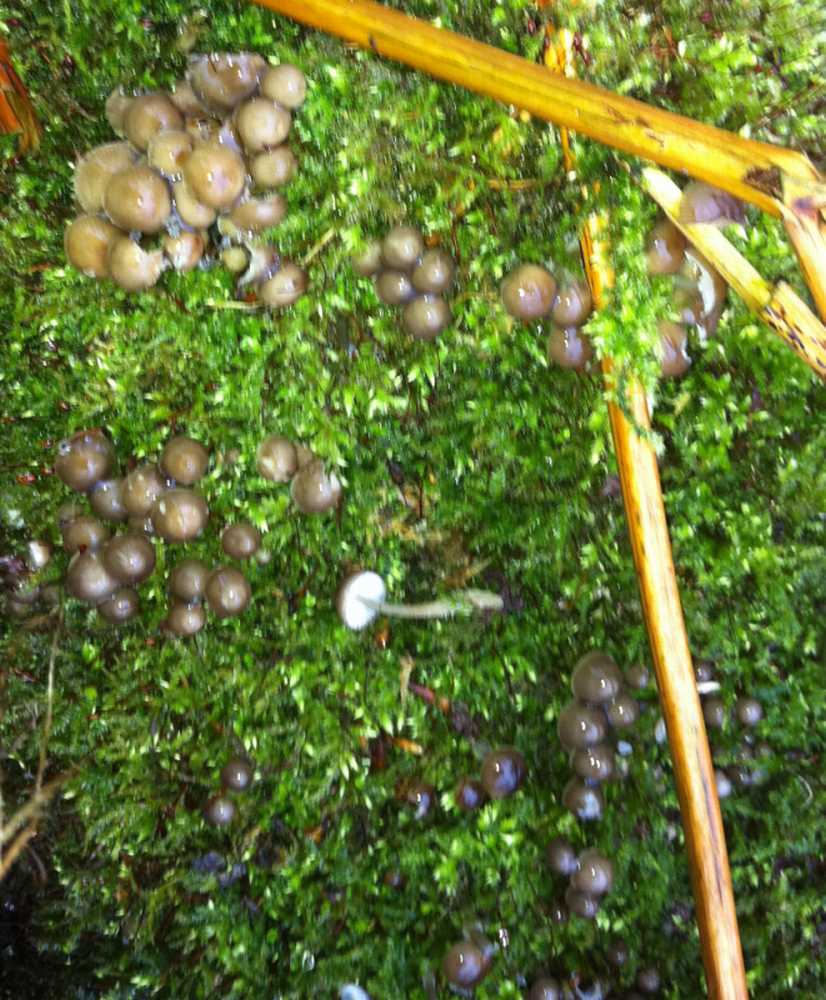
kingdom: Fungi
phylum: Basidiomycota
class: Agaricomycetes
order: Agaricales
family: Mycenaceae
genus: Mycena
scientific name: Mycena tintinnabulum
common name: vinter-huesvamp
